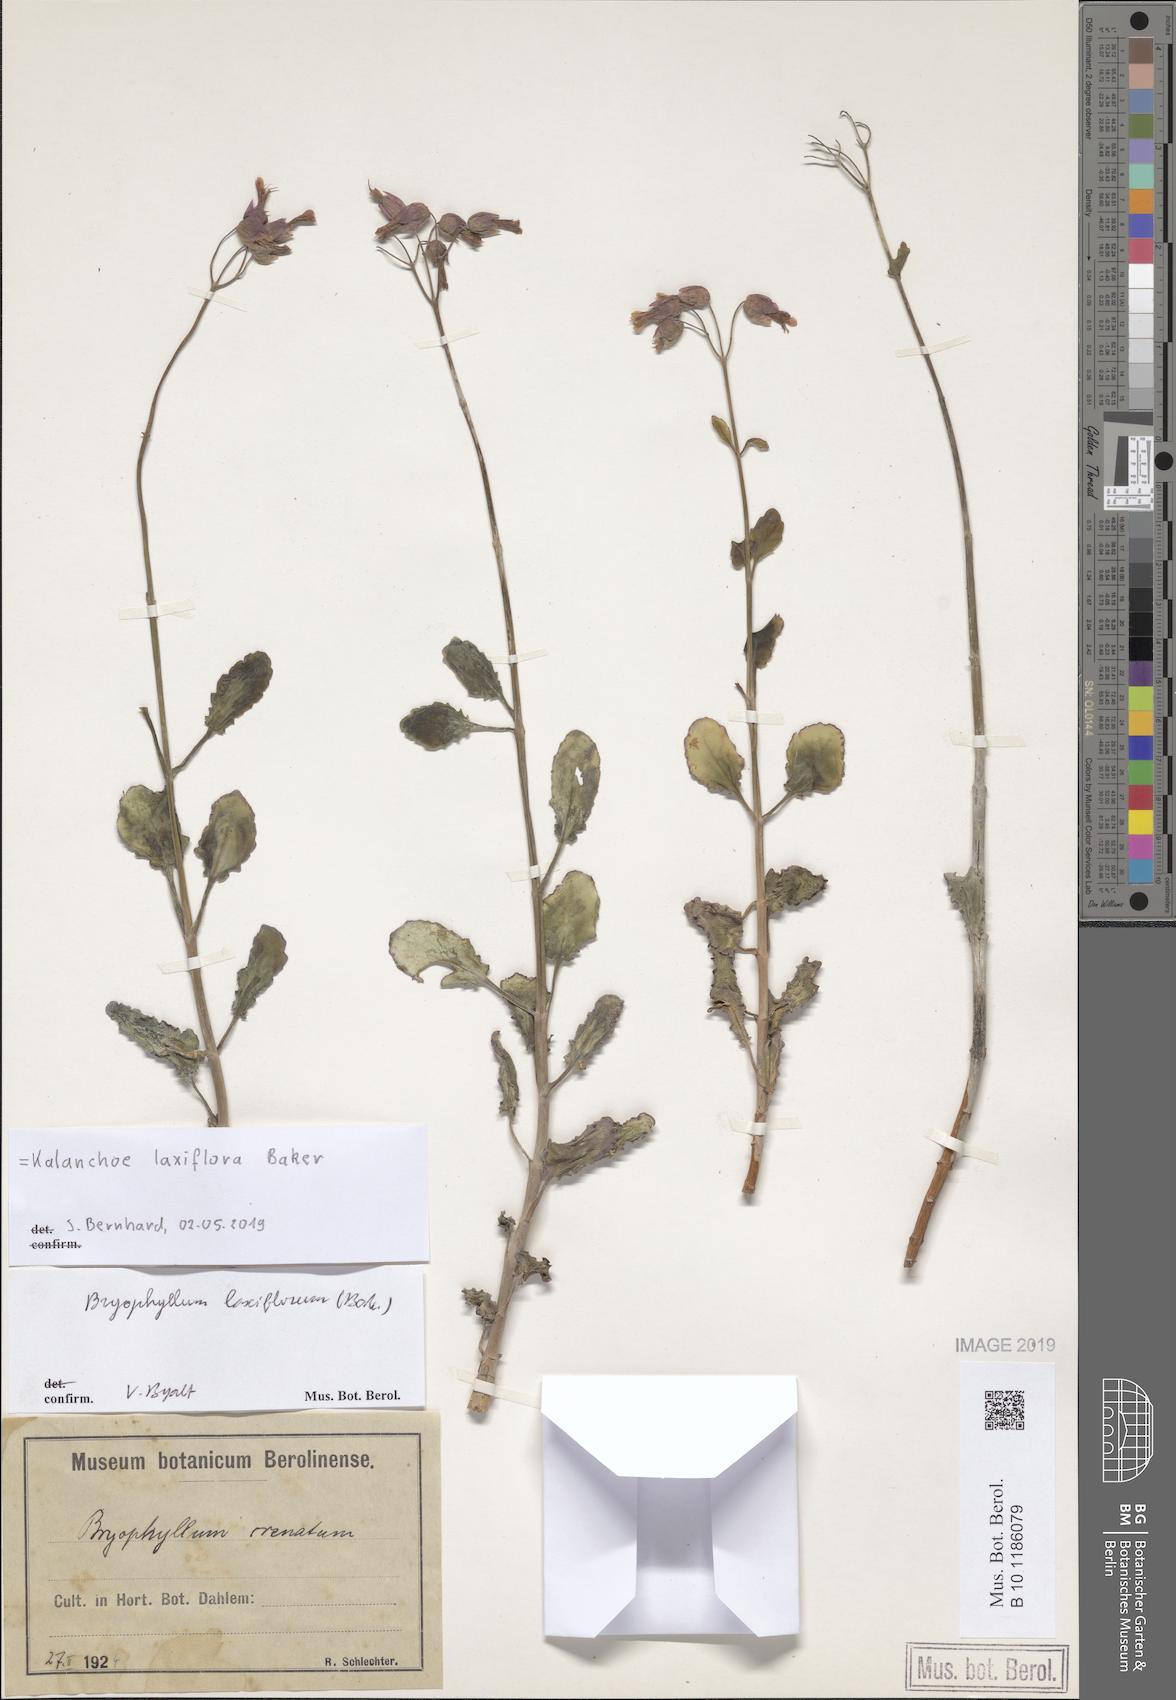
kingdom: Plantae
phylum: Tracheophyta
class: Magnoliopsida
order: Saxifragales
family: Crassulaceae
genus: Kalanchoe
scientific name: Kalanchoe laxiflora
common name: Milky widow's thrill
